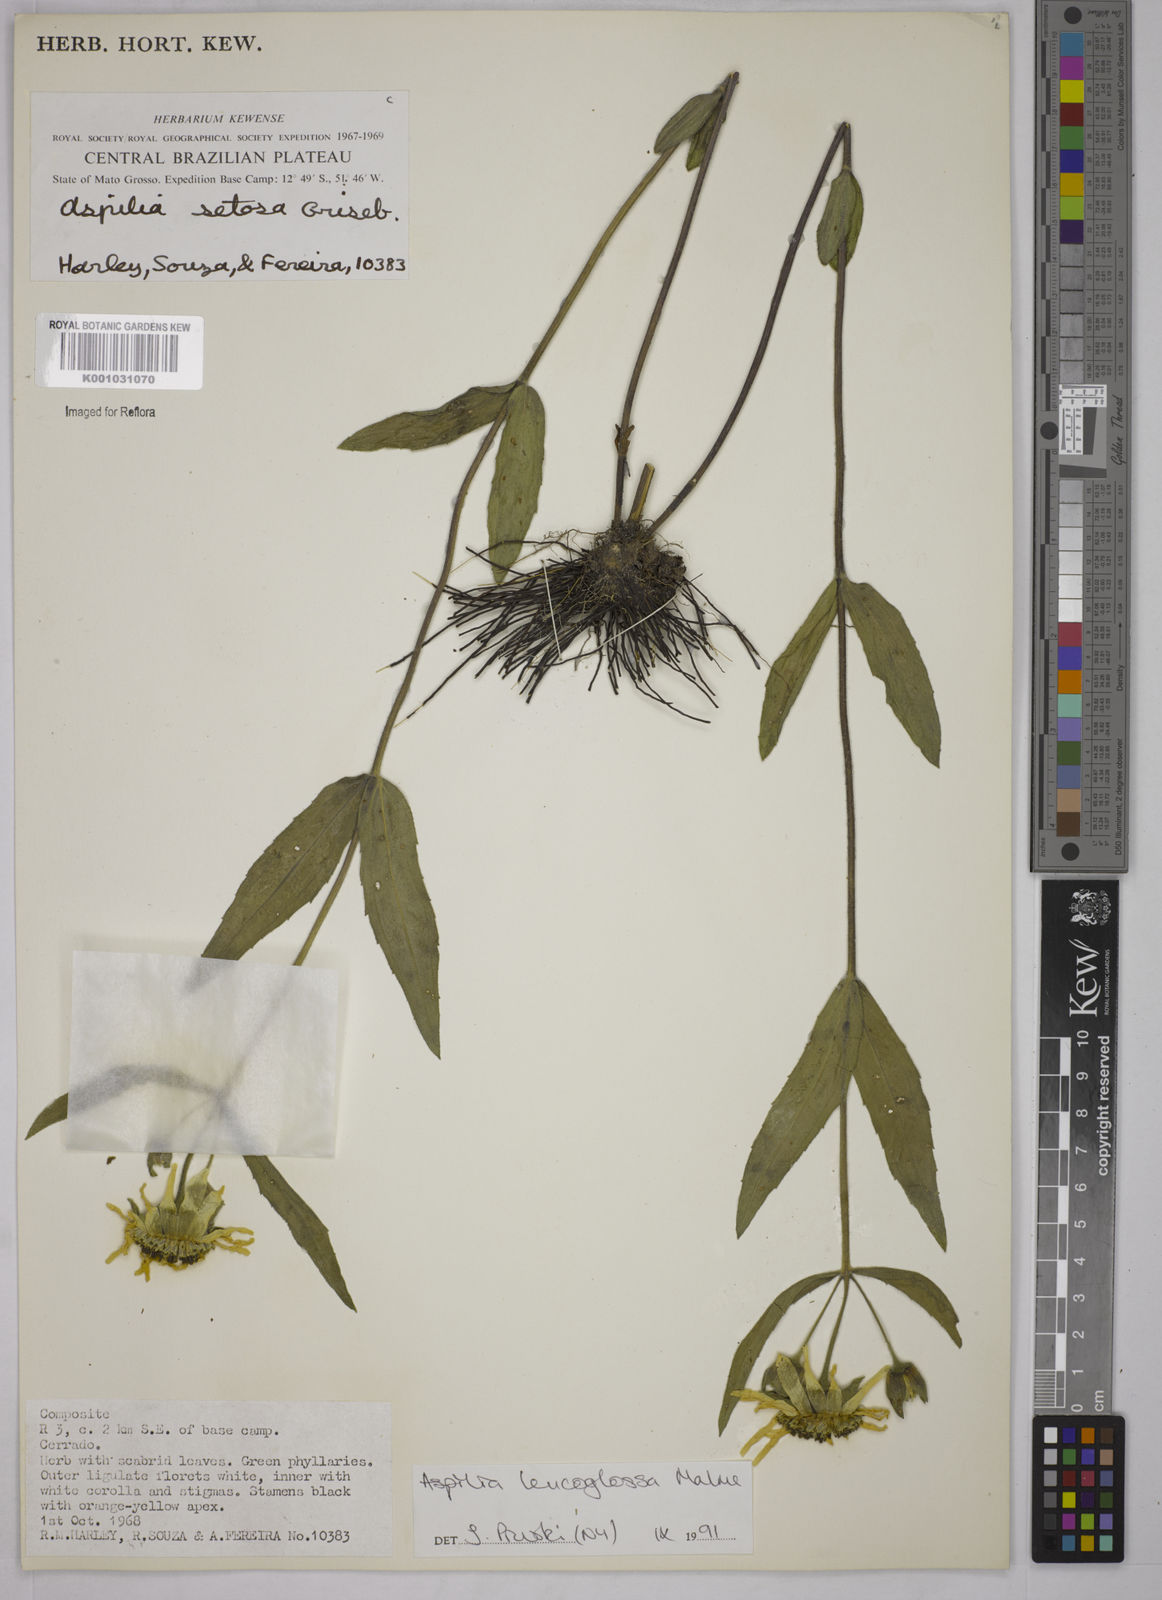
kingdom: Plantae
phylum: Tracheophyta
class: Magnoliopsida
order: Asterales
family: Asteraceae
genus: Wedelia
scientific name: Wedelia leucoglossa
